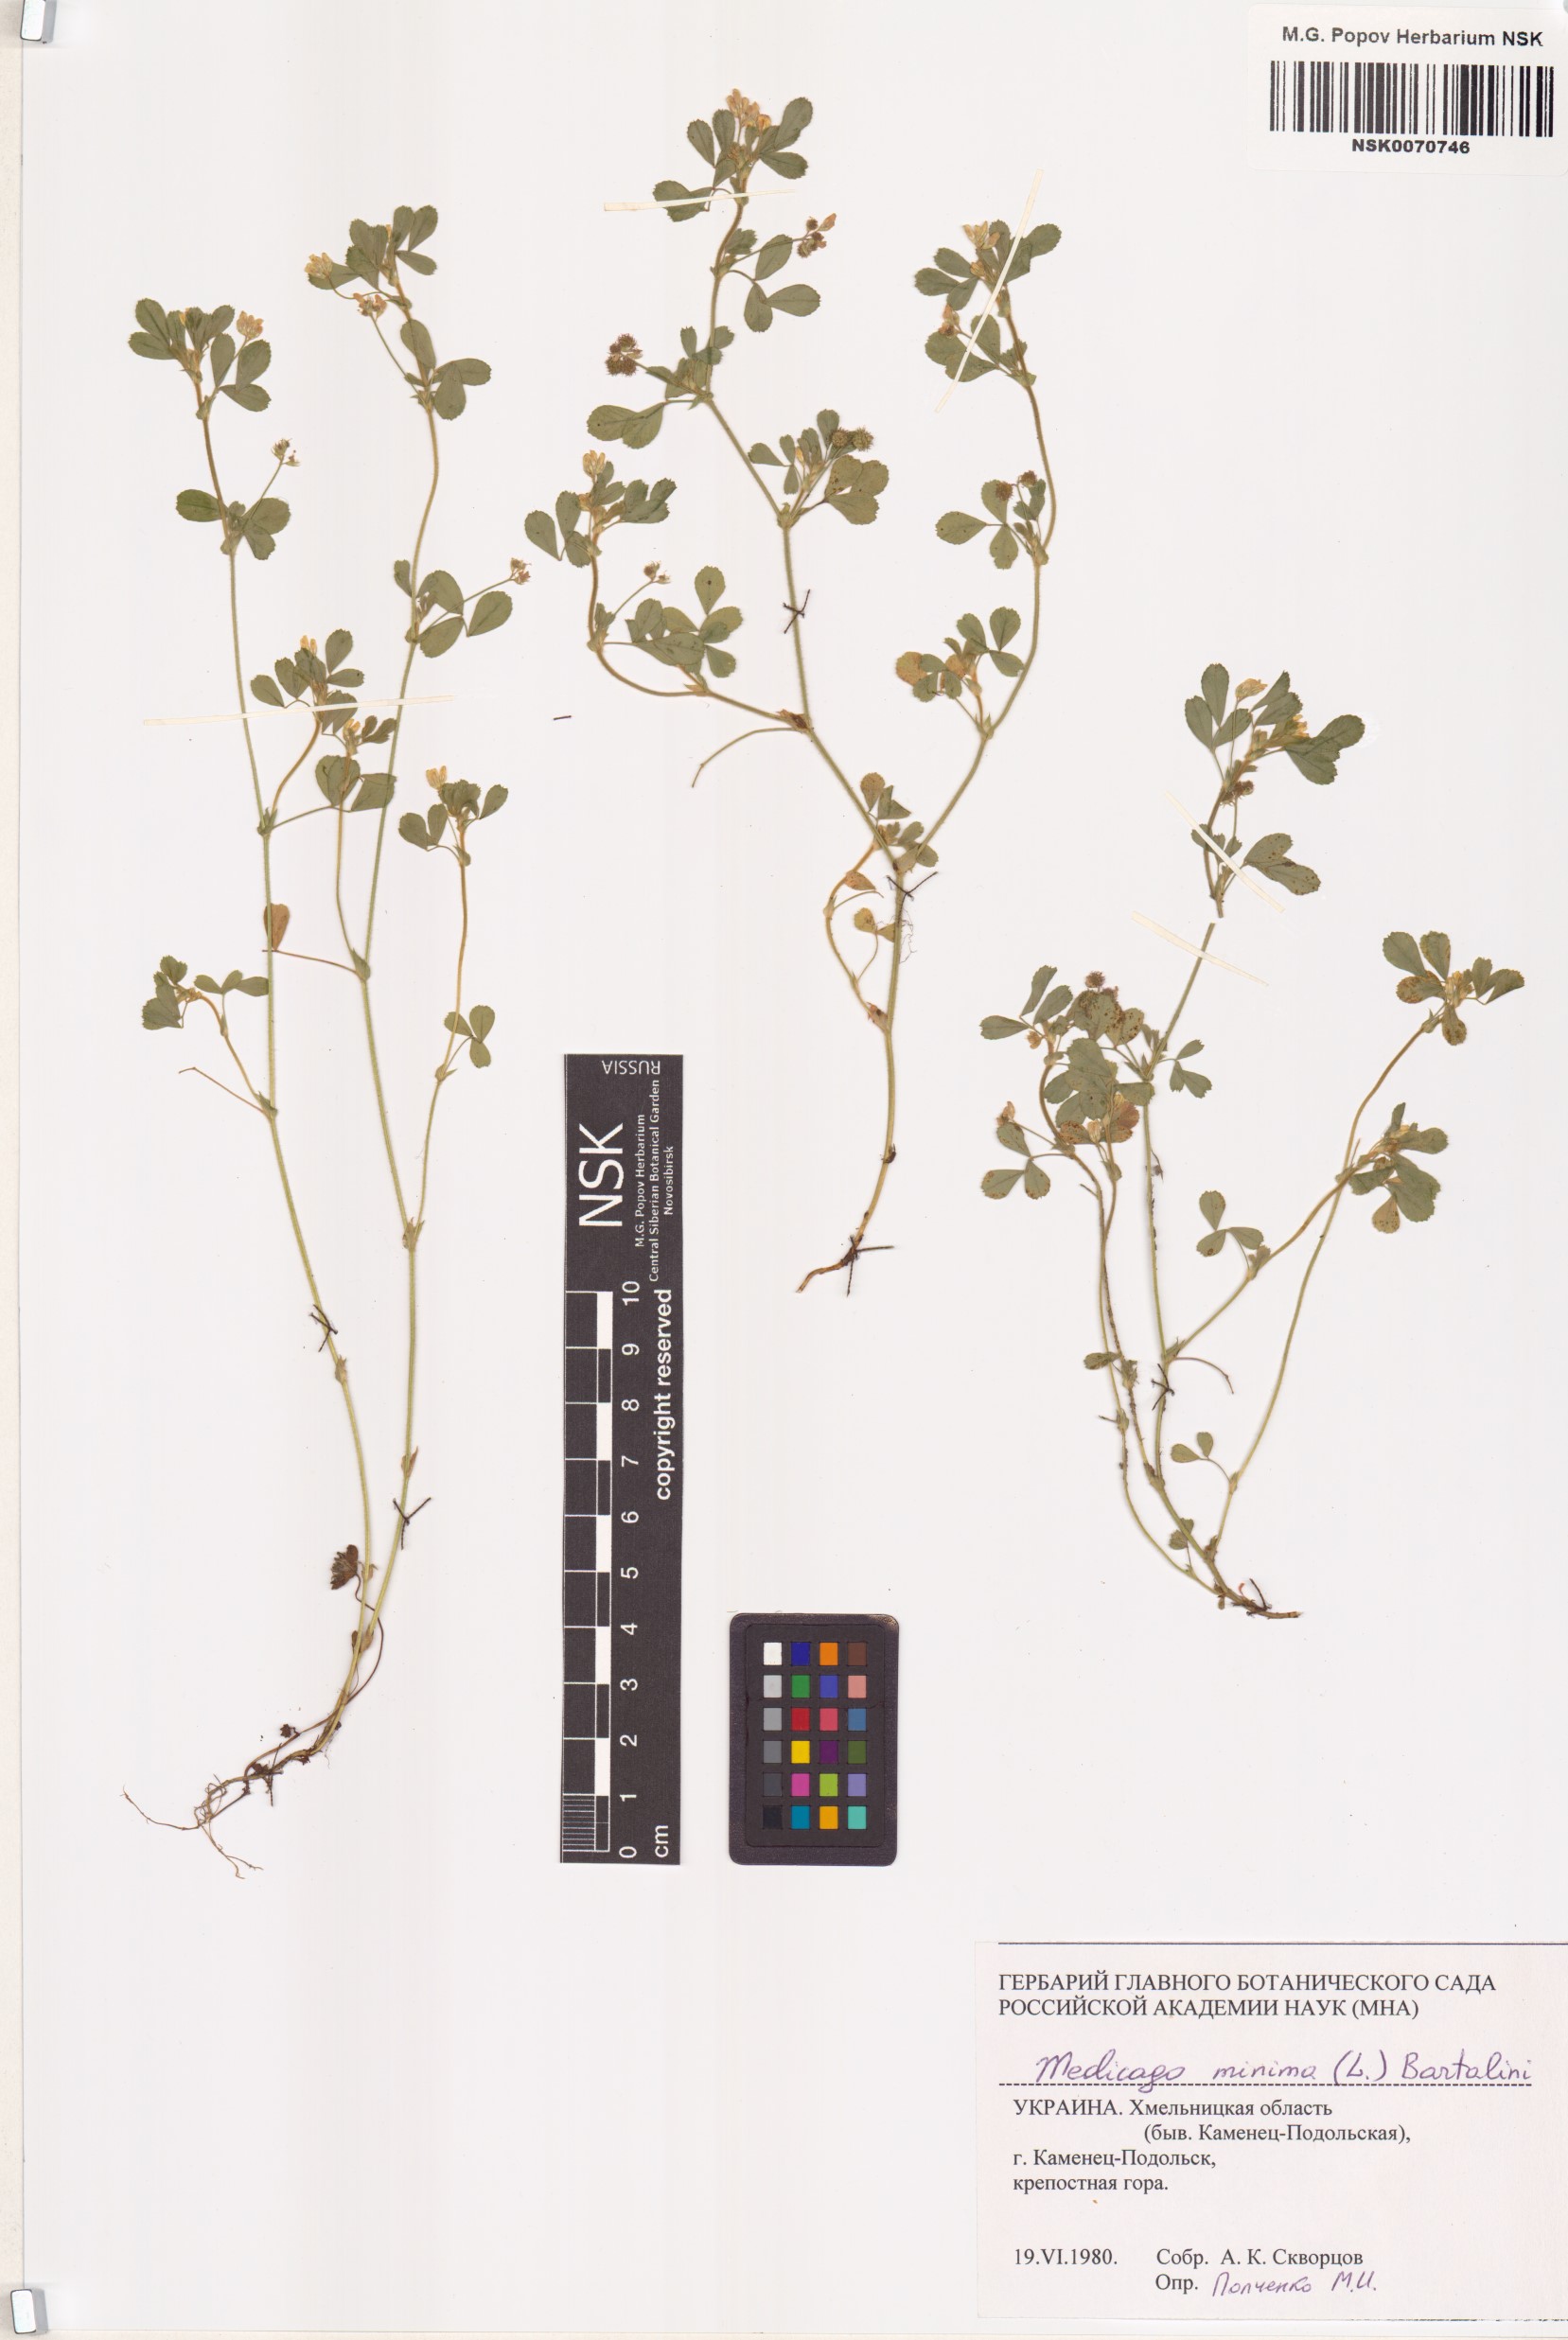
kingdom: Plantae
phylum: Tracheophyta
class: Magnoliopsida
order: Fabales
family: Fabaceae
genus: Medicago
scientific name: Medicago minima
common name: Little bur-clover
